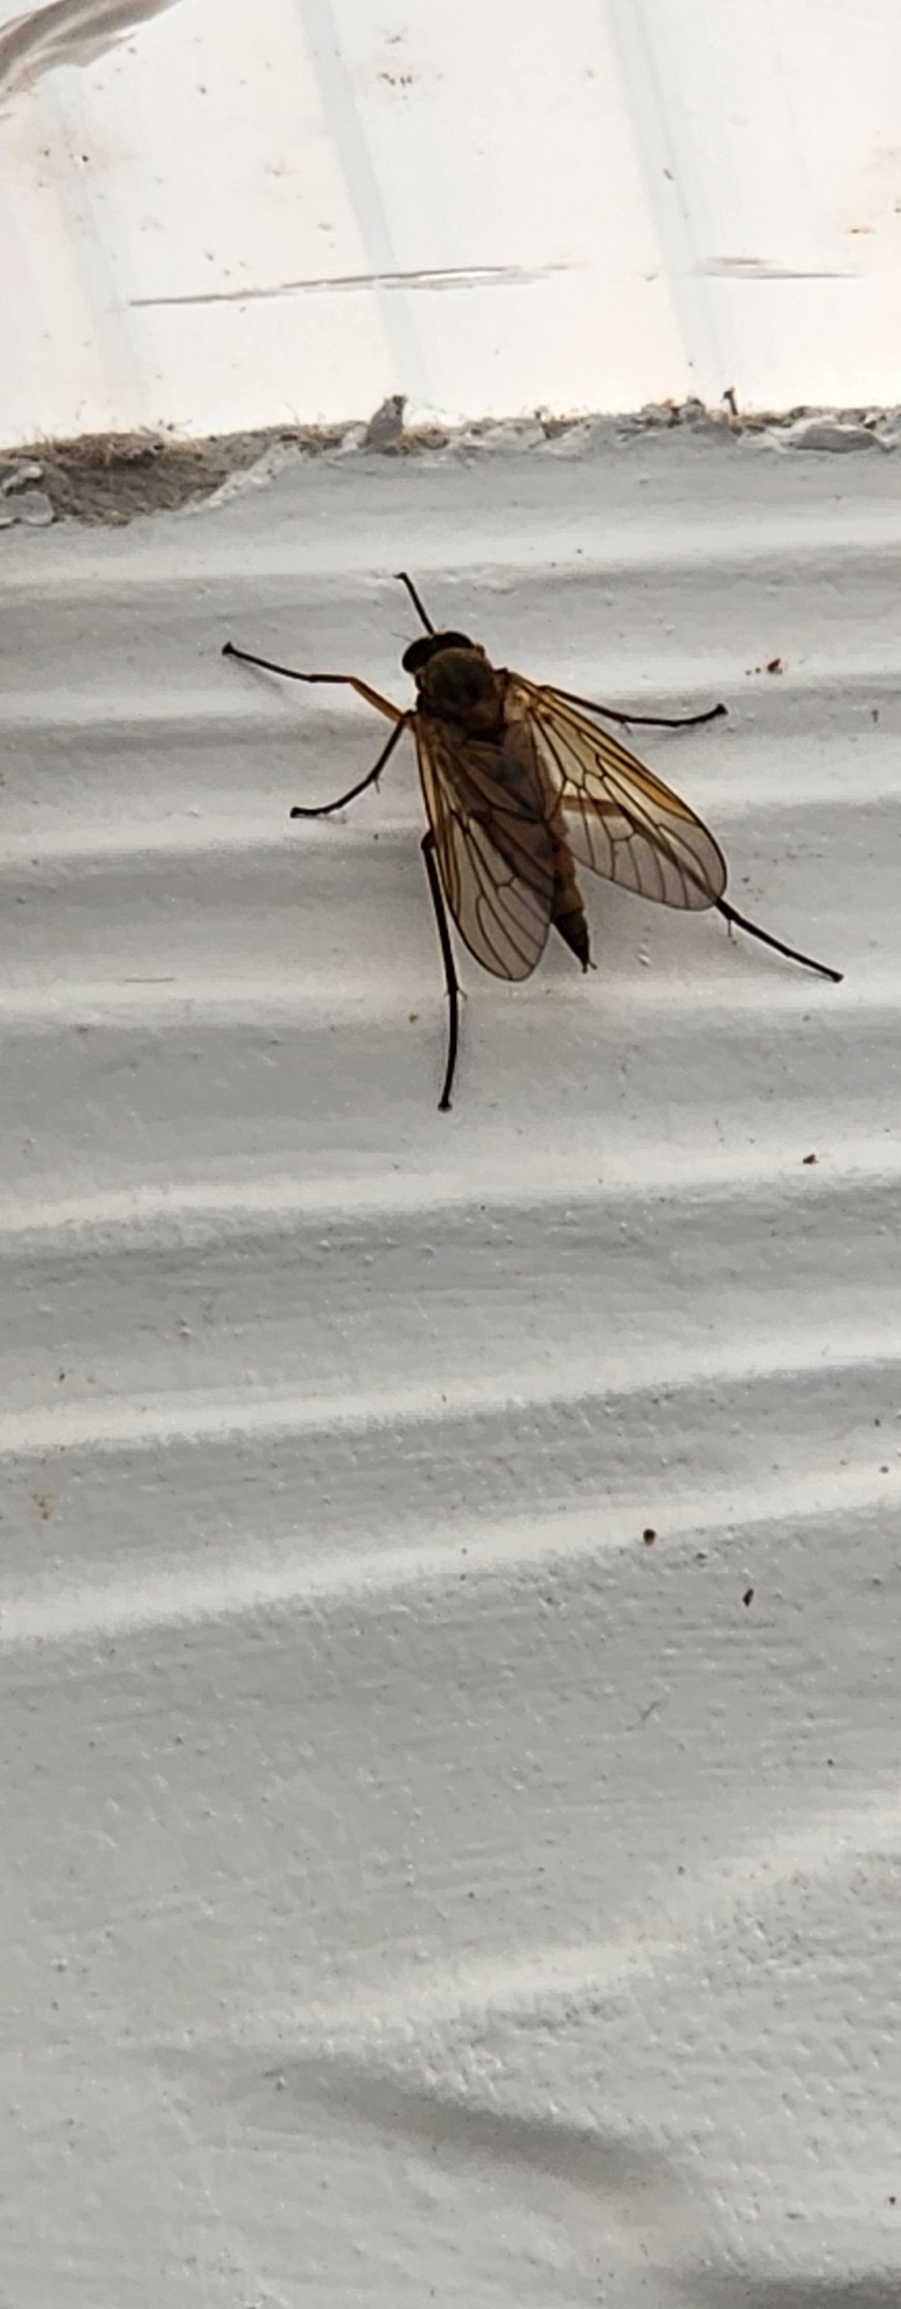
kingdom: Animalia
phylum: Arthropoda
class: Insecta
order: Diptera
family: Rhagionidae
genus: Rhagio
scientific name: Rhagio tringaria
